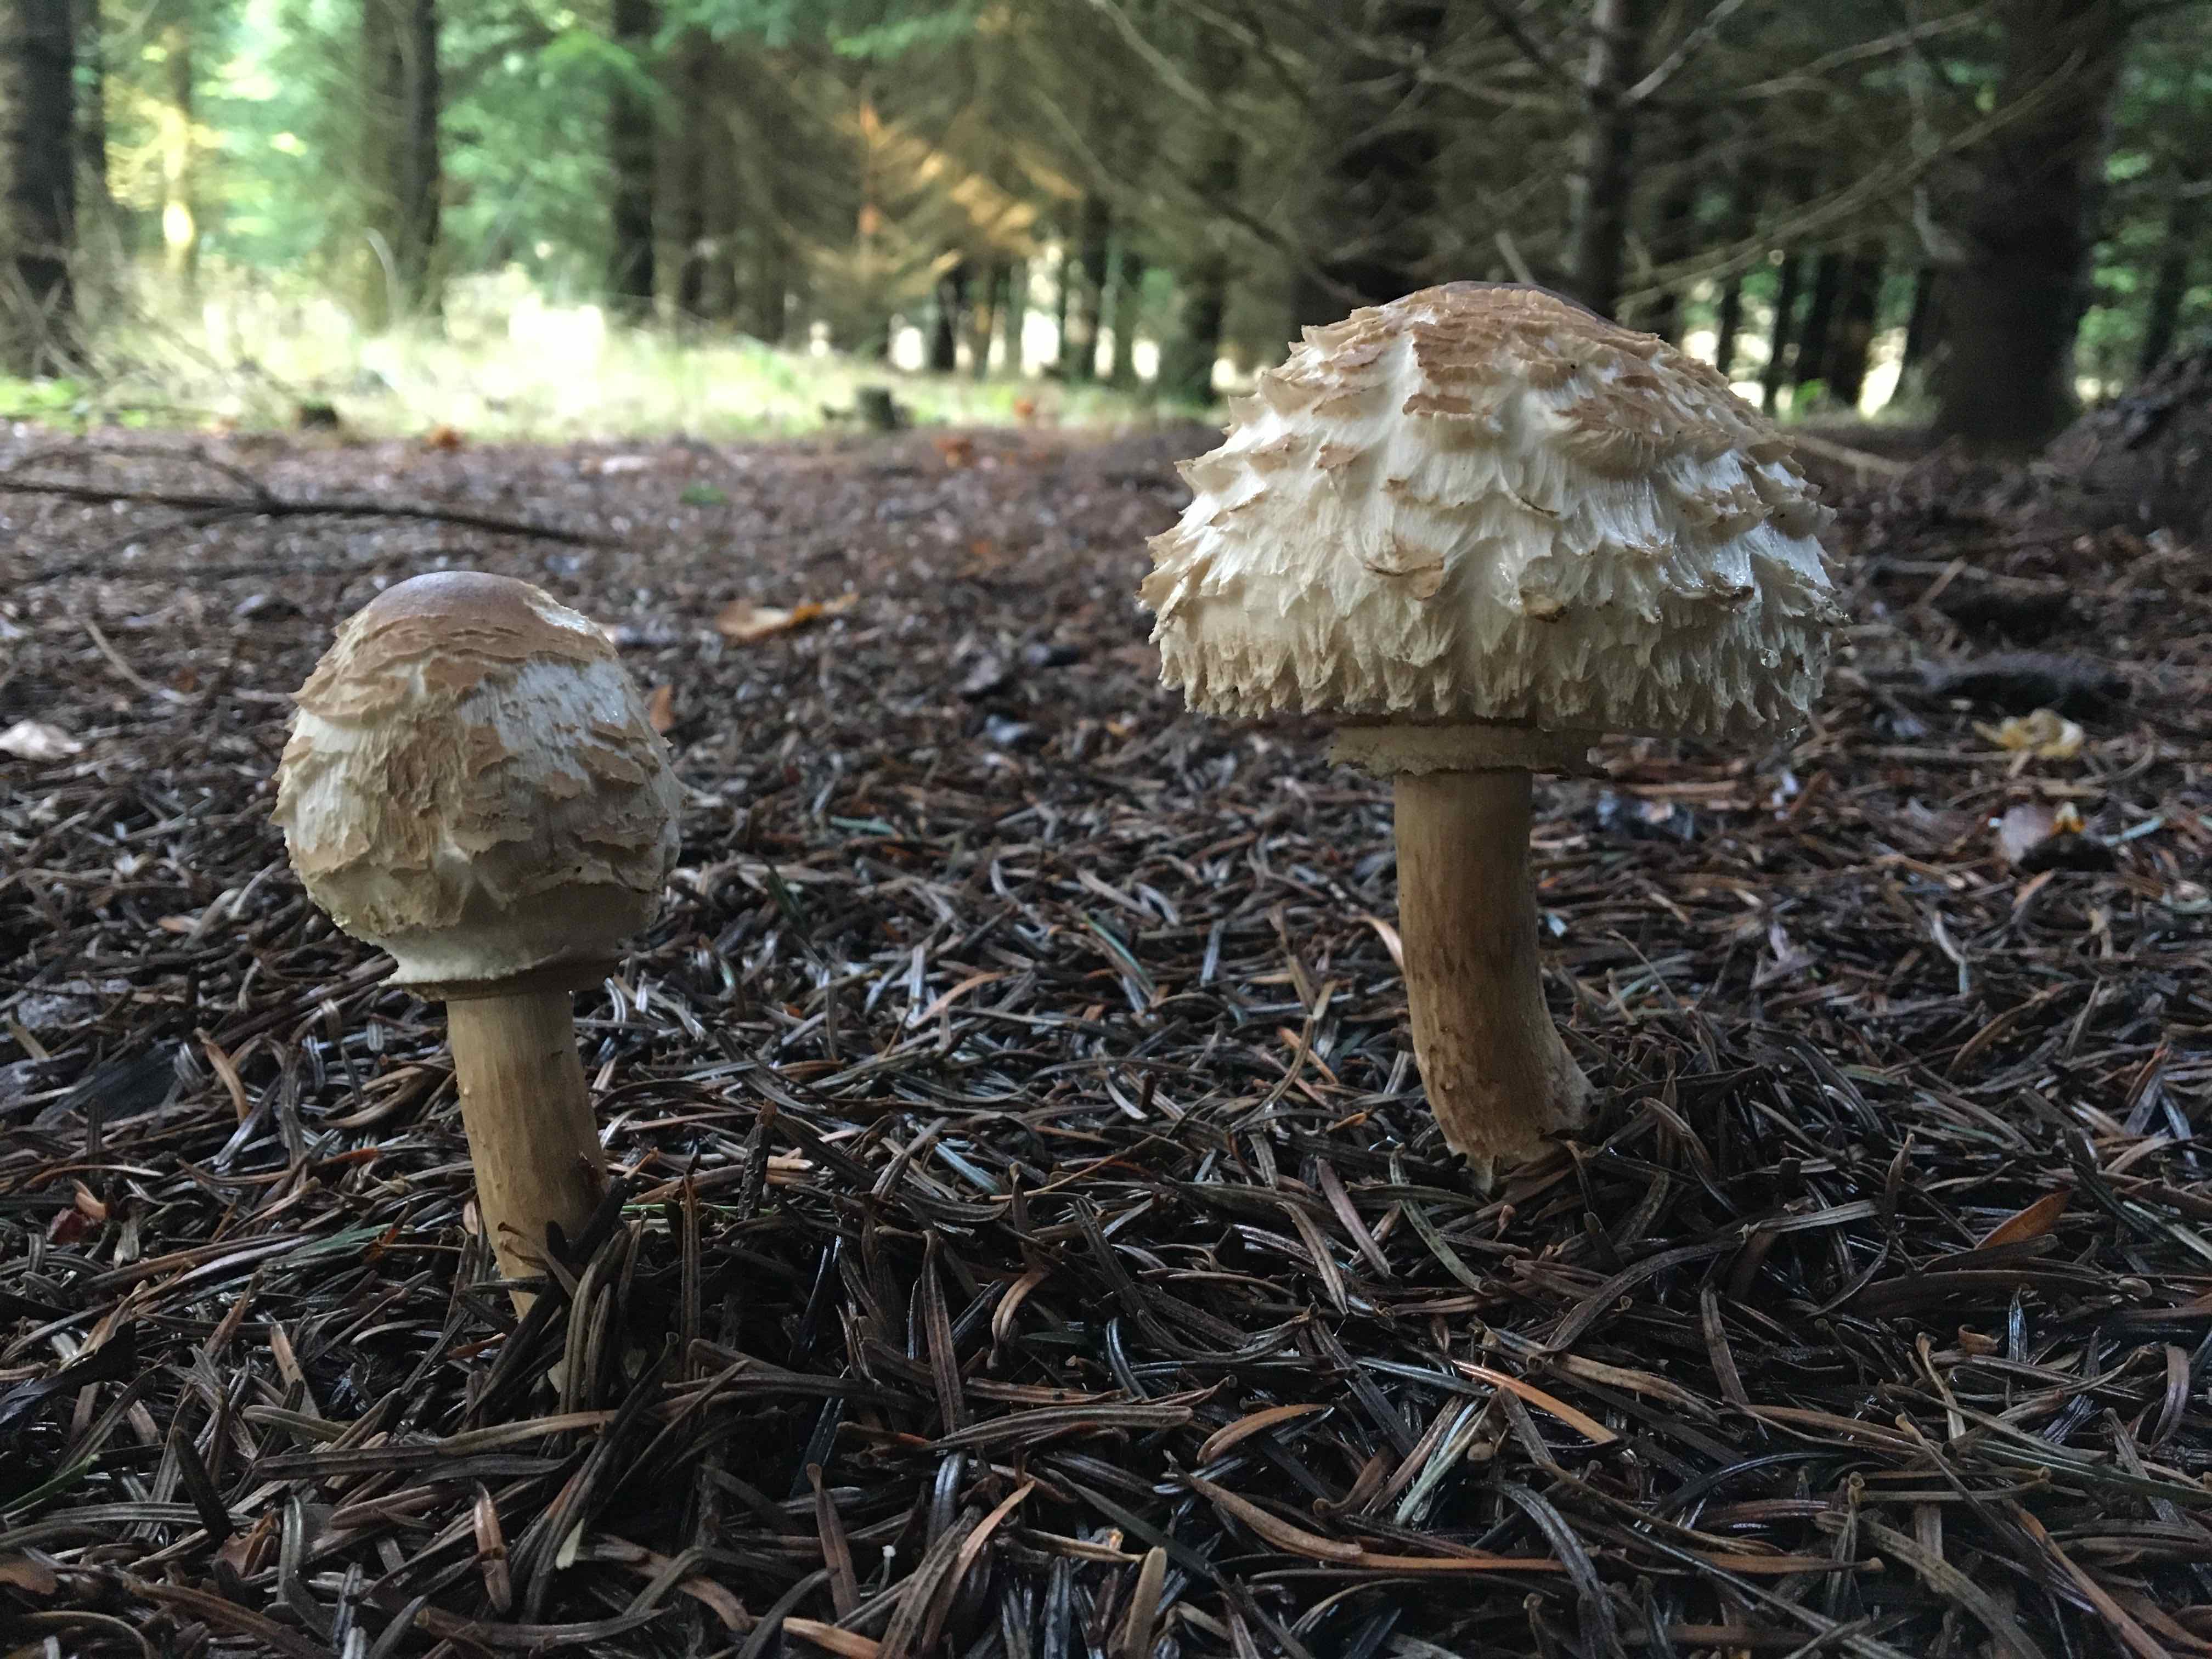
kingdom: Fungi
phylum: Basidiomycota
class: Agaricomycetes
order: Agaricales
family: Agaricaceae
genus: Chlorophyllum
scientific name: Chlorophyllum olivieri
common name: almindelig rabarberhat
